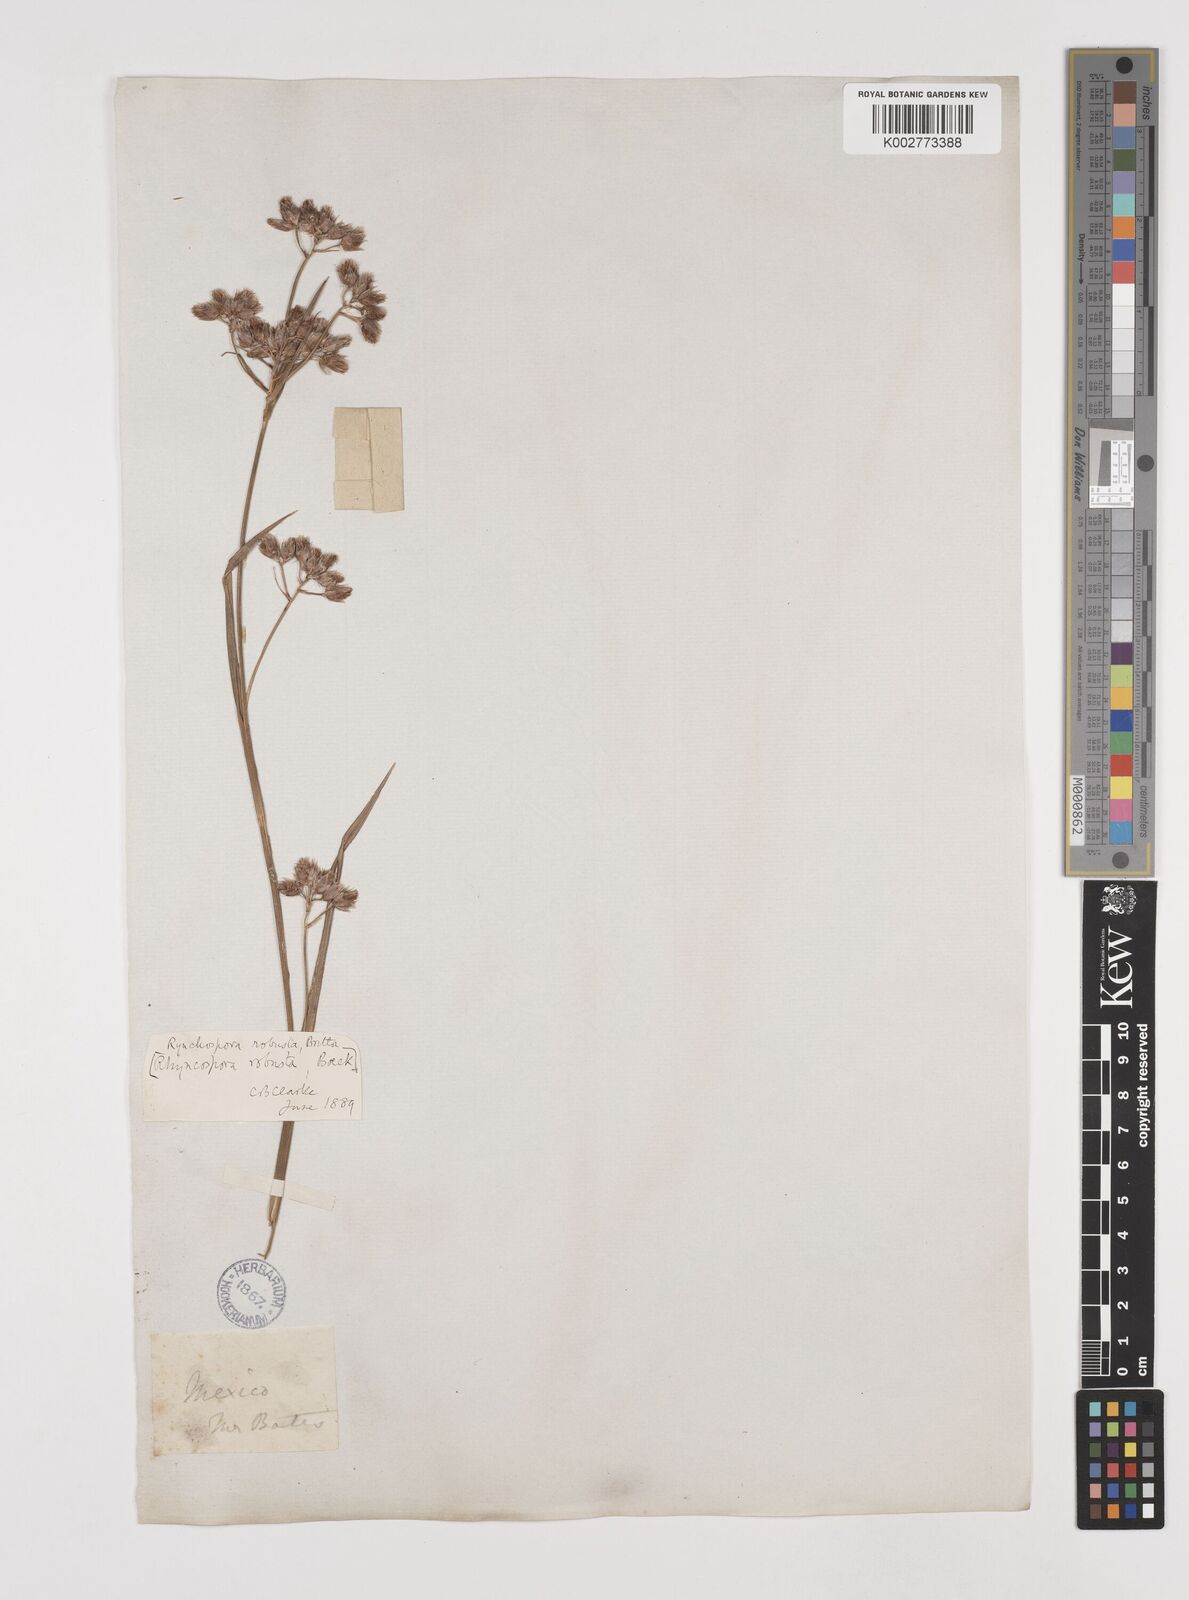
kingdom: Plantae
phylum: Tracheophyta
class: Liliopsida
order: Poales
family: Cyperaceae
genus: Rhynchospora
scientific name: Rhynchospora robusta
